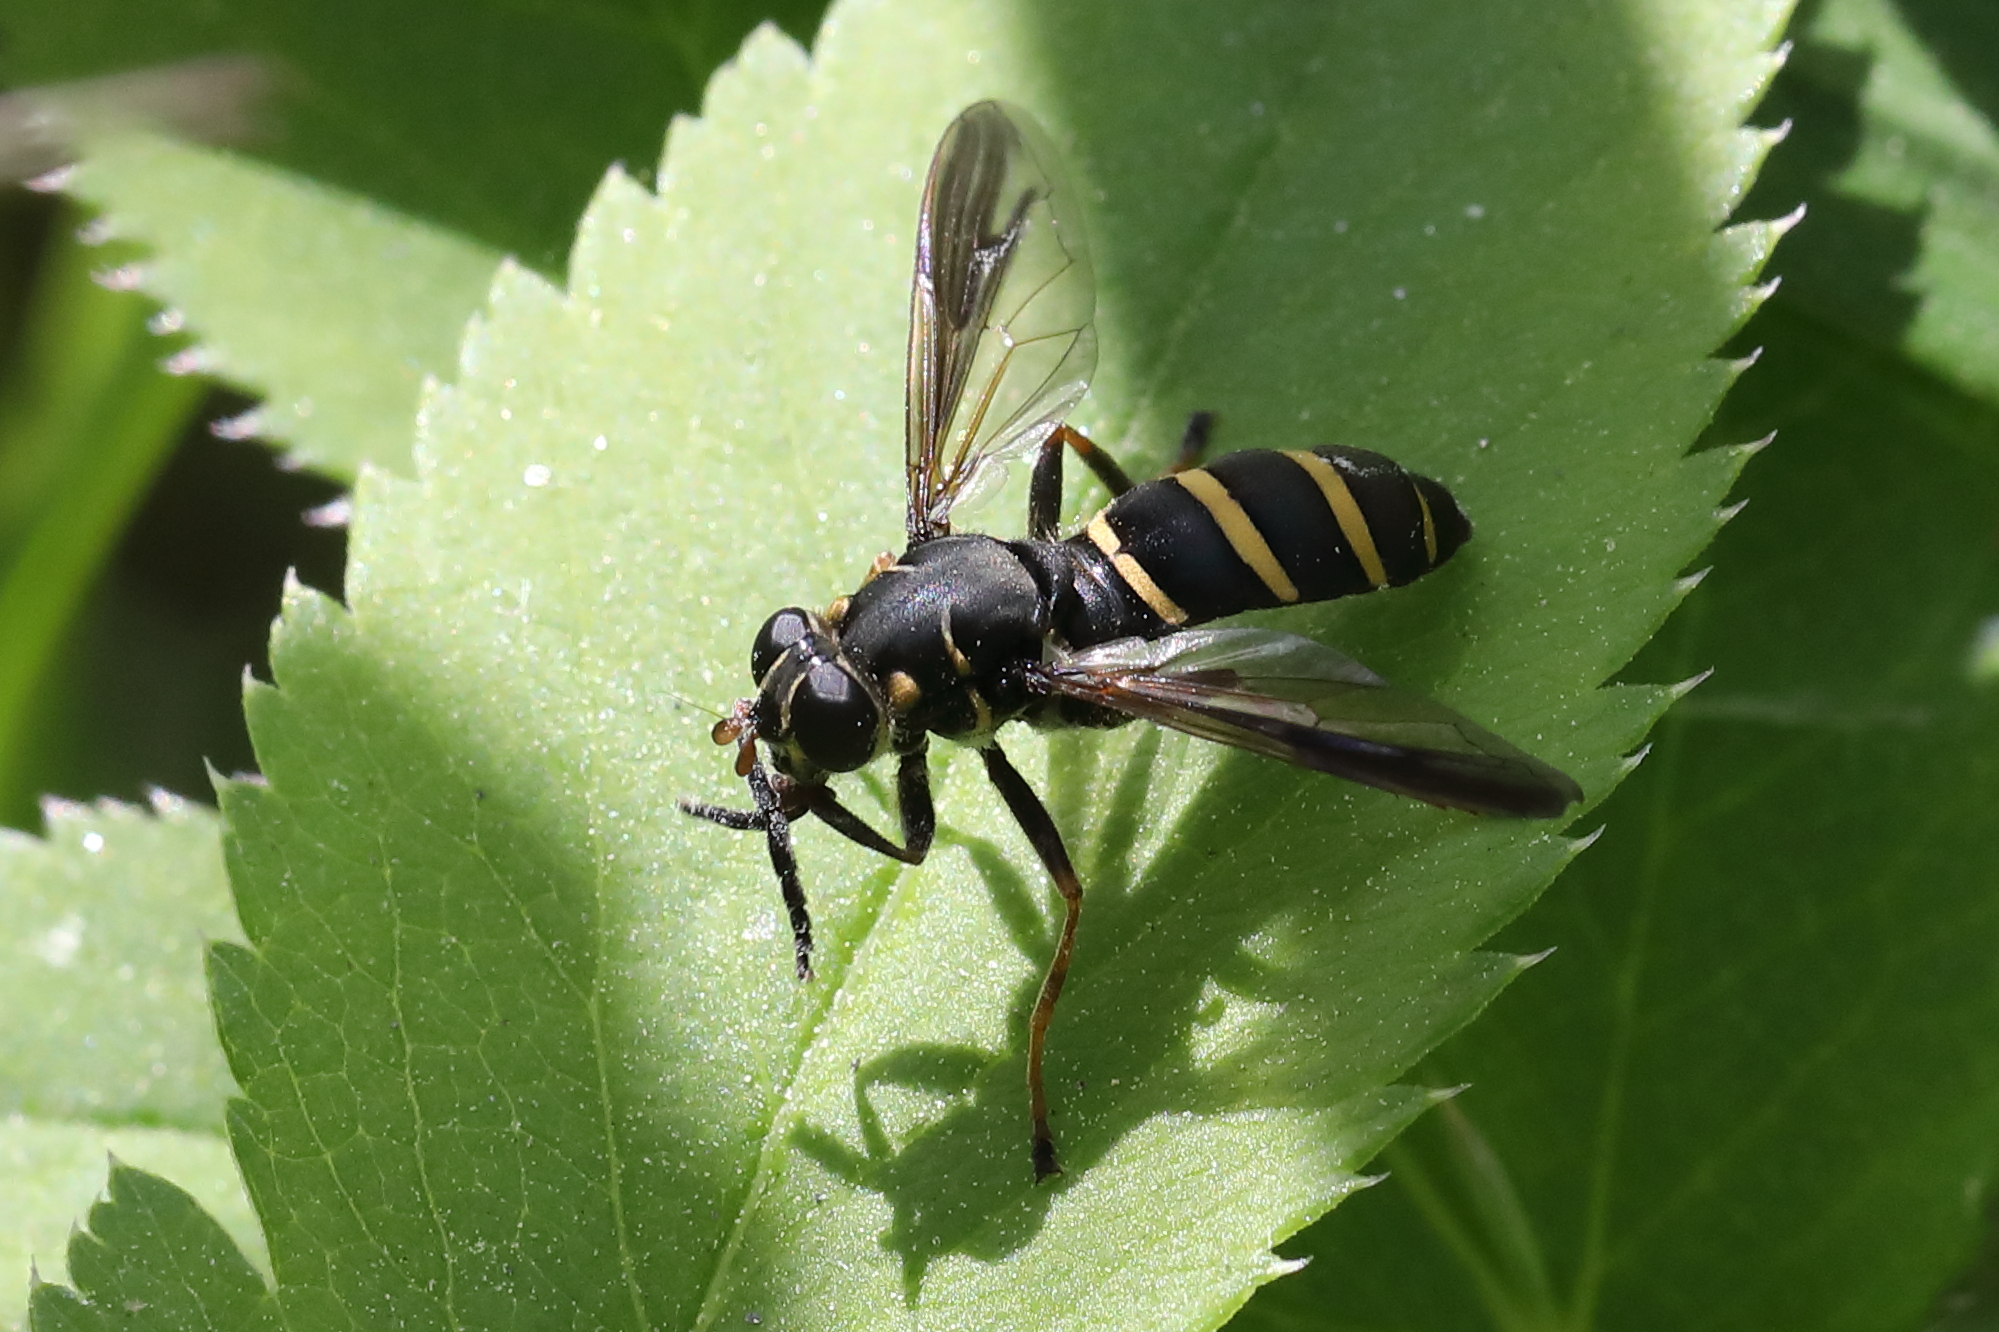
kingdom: Animalia
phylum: Arthropoda
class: Insecta
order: Diptera
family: Syrphidae
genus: Temnostoma
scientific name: Temnostoma angustistriatum
